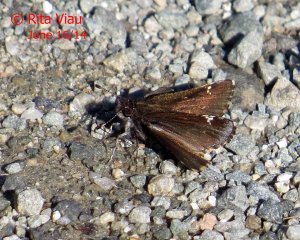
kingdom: Animalia
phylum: Arthropoda
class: Insecta
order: Lepidoptera
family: Hesperiidae
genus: Mastor
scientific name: Mastor vialis
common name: Common Roadside-Skipper
